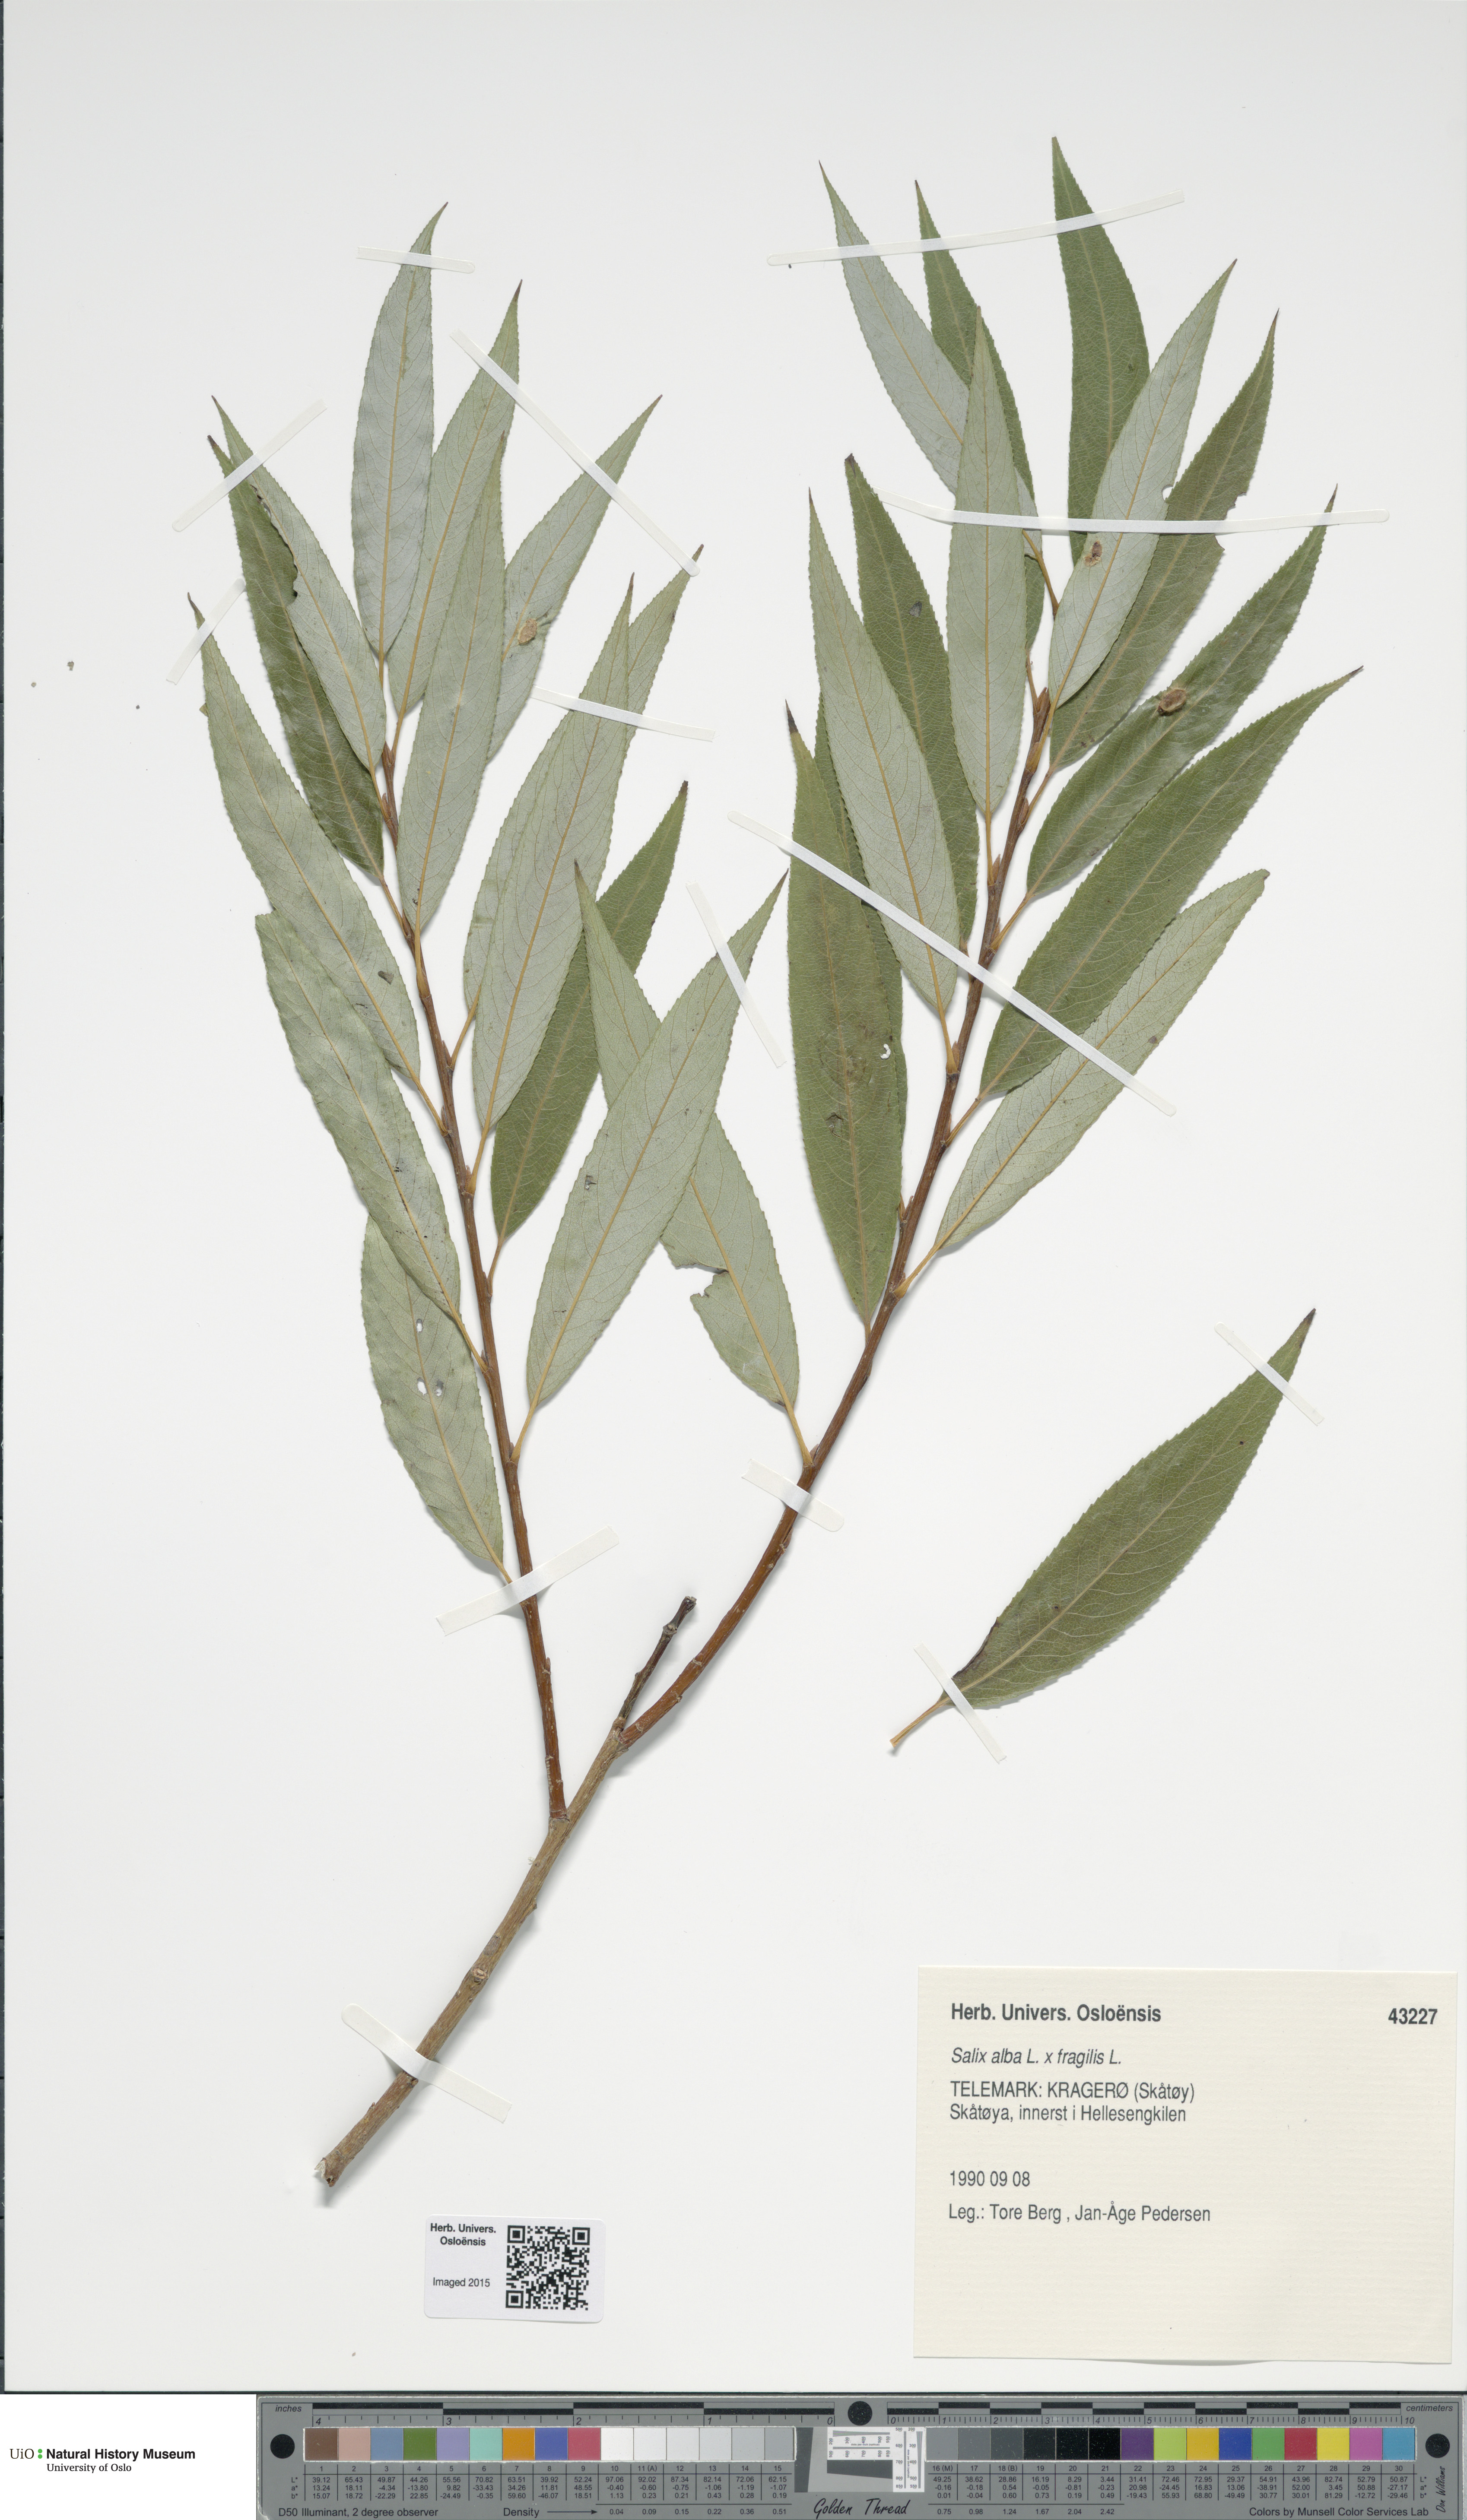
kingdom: Plantae
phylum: Tracheophyta
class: Magnoliopsida
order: Malpighiales
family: Salicaceae
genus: Salix
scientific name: Salix
